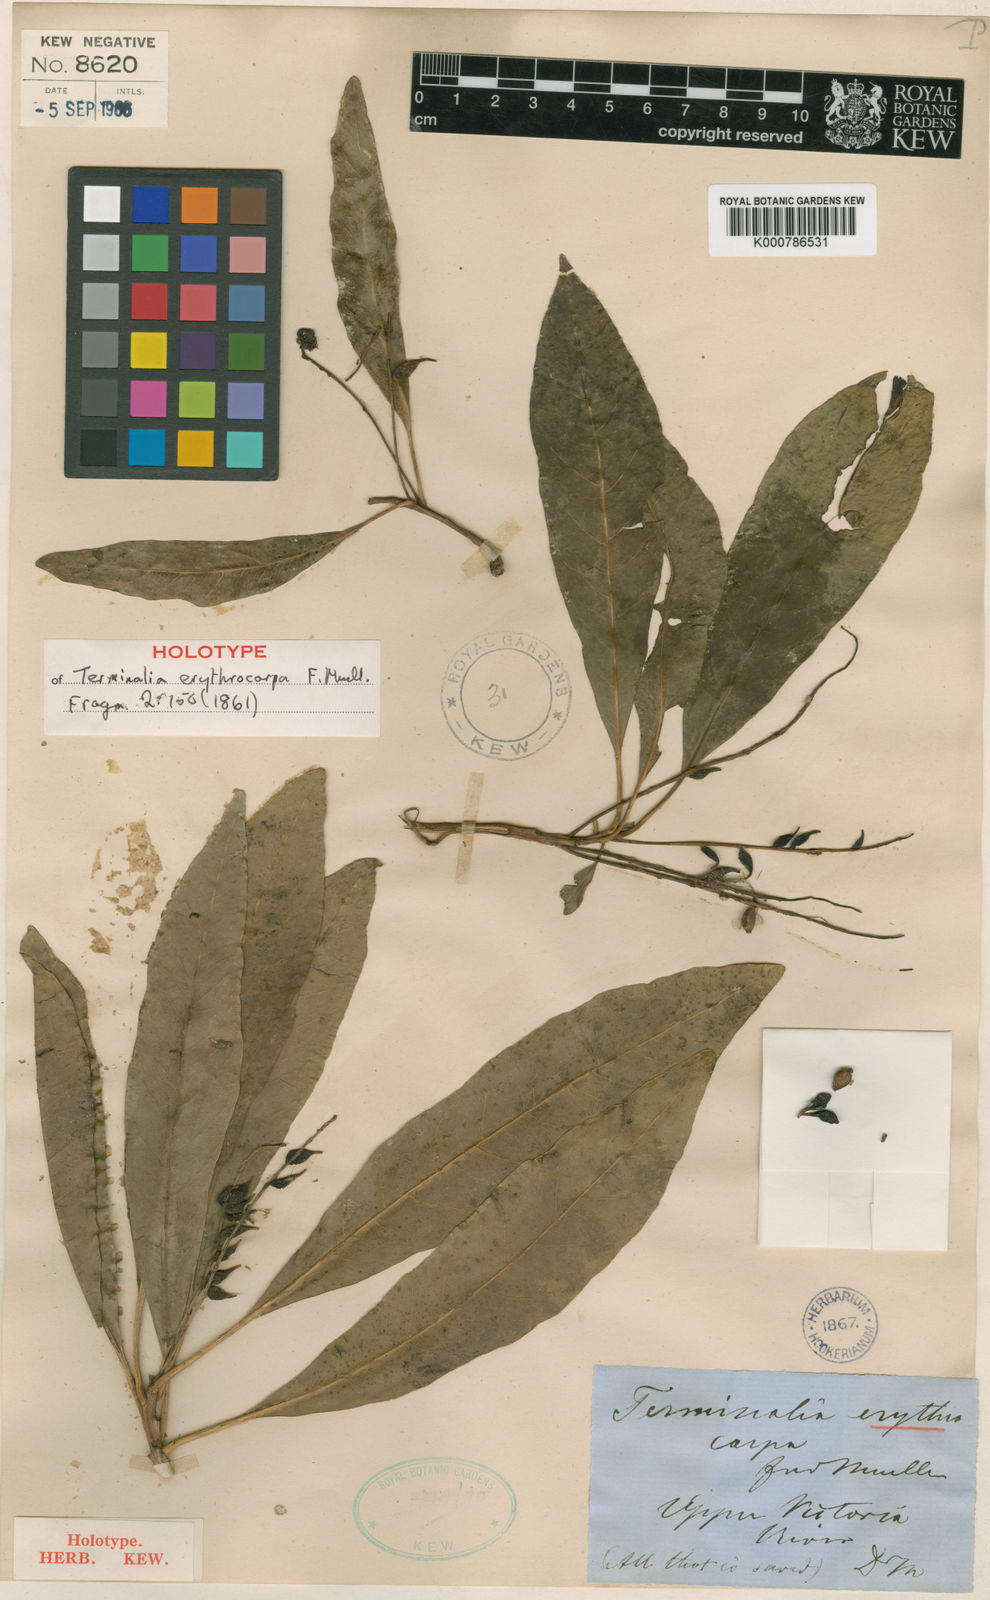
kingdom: Plantae
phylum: Tracheophyta
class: Magnoliopsida
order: Myrtales
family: Combretaceae
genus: Terminalia
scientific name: Terminalia erythrocarpa
